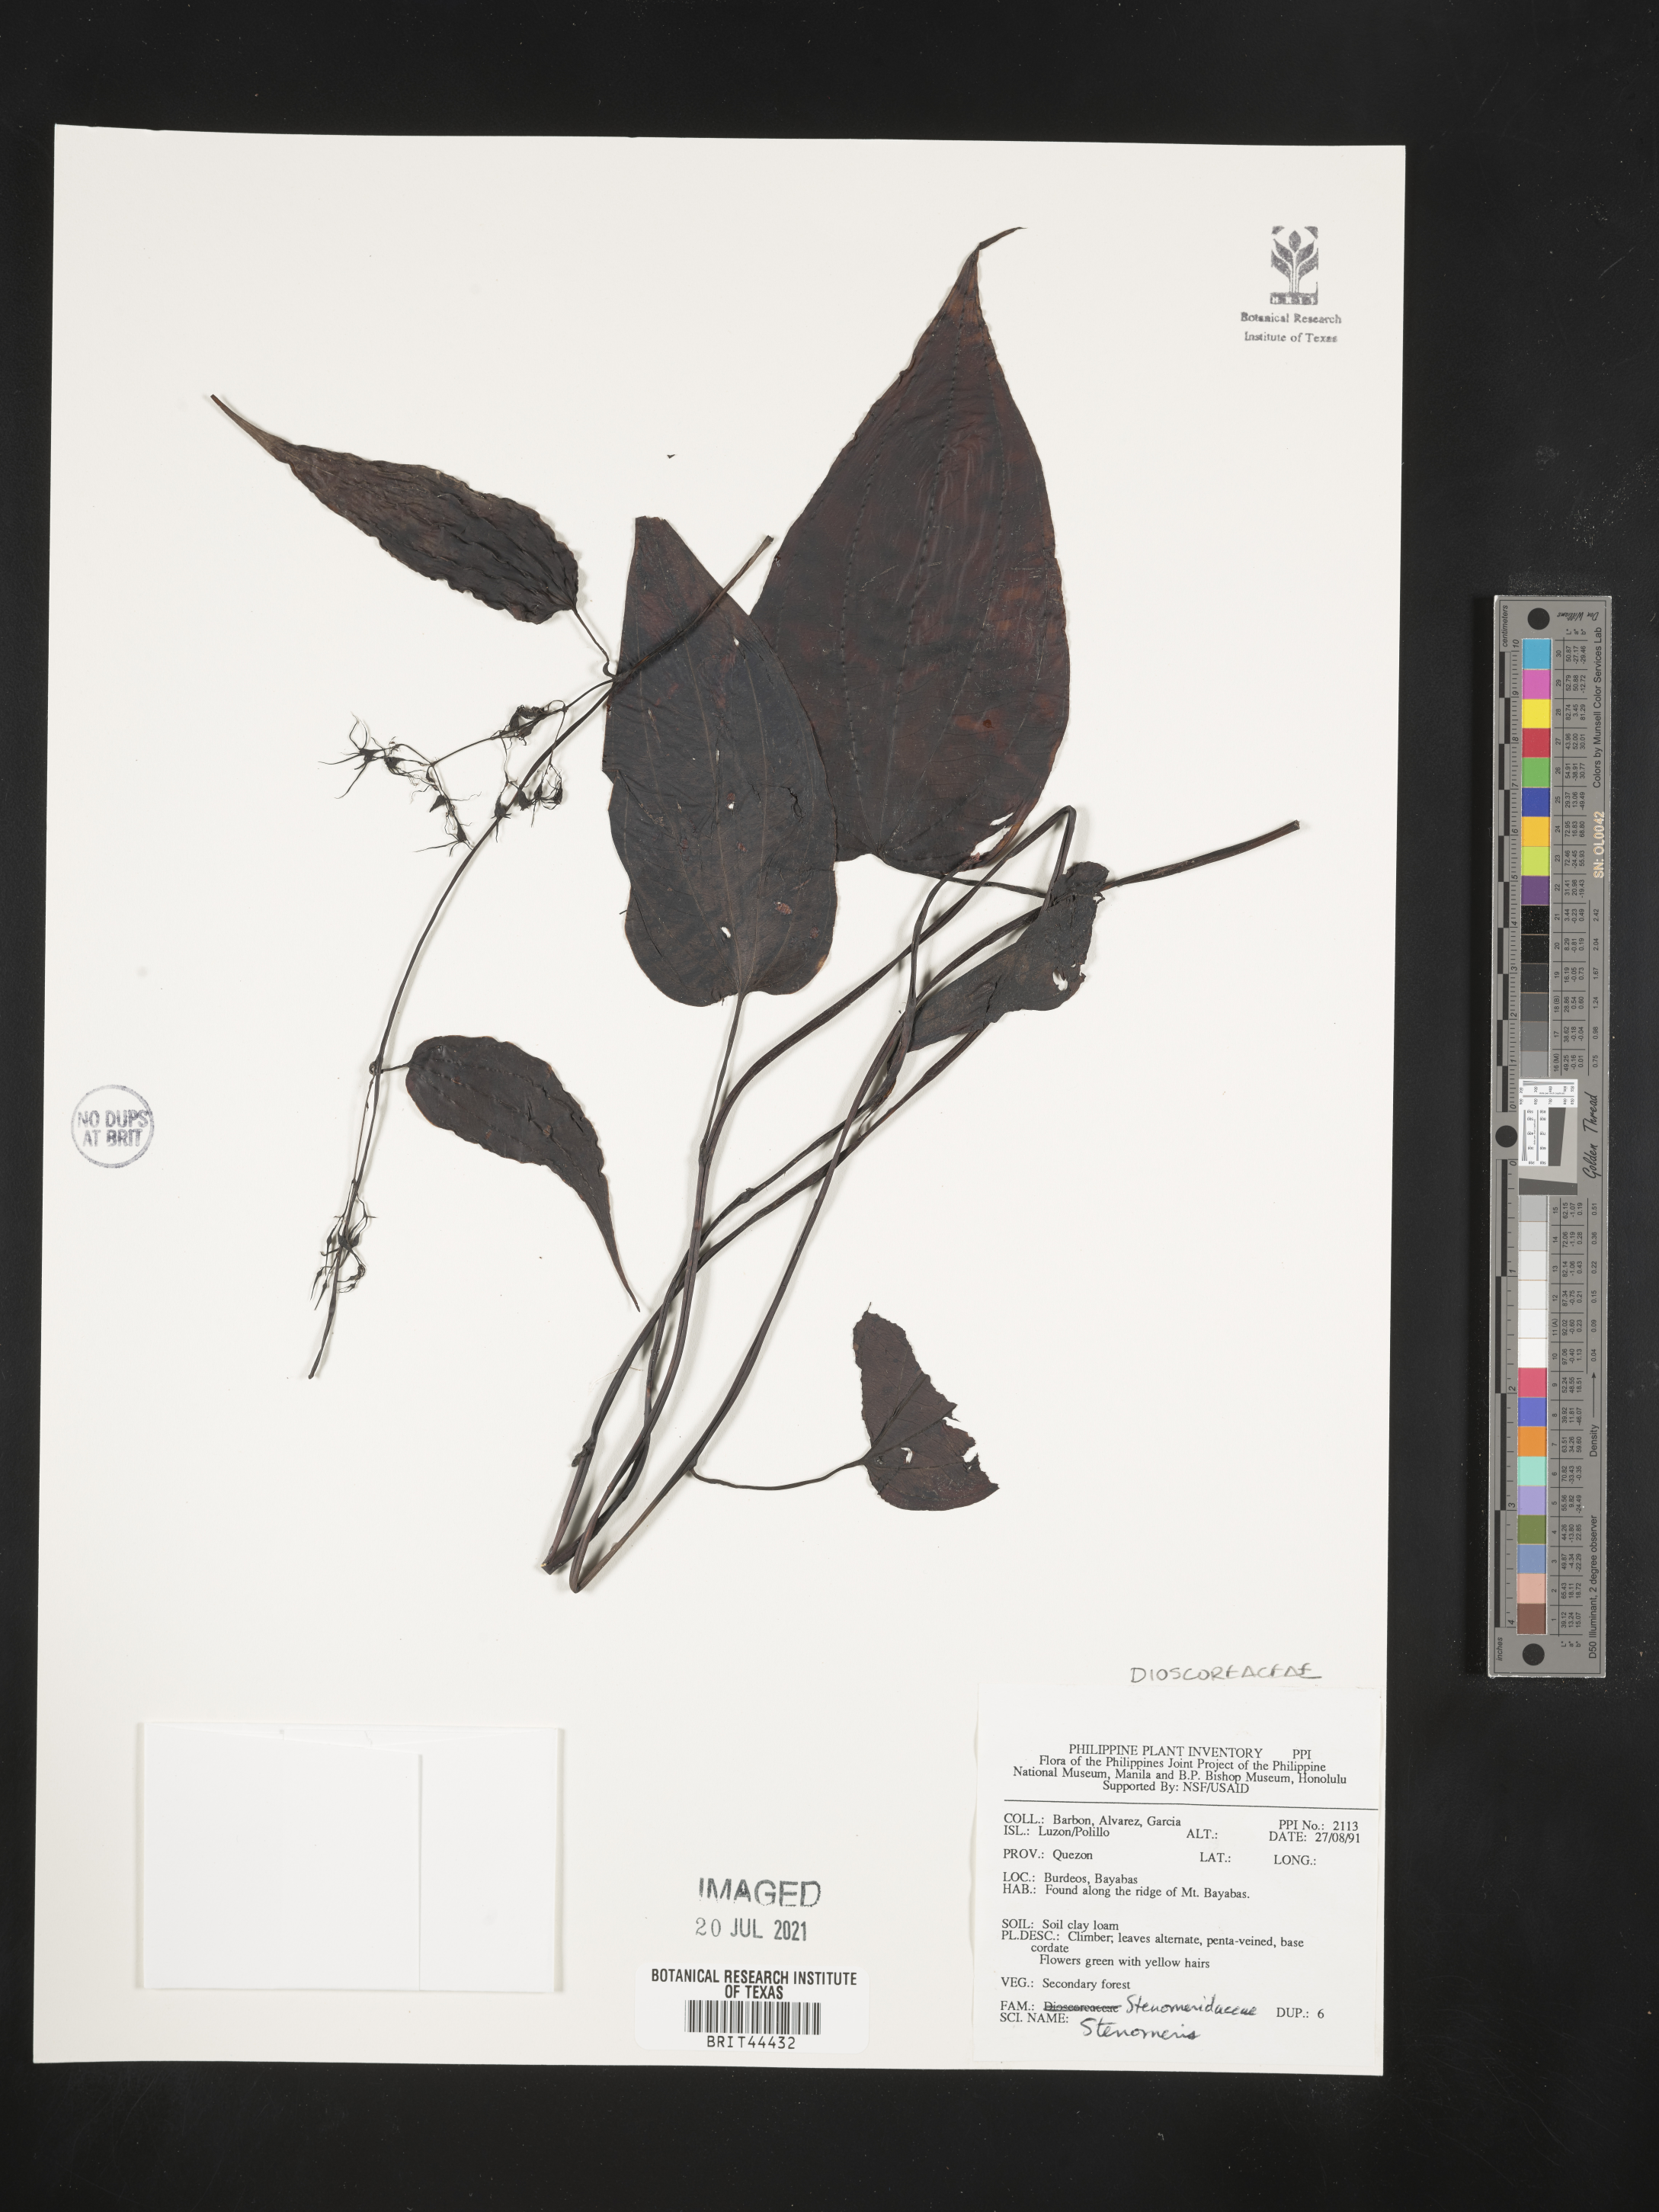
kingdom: Plantae
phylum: Tracheophyta
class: Liliopsida
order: Dioscoreales
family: Dioscoreaceae
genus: Stenomeris
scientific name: Stenomeris
